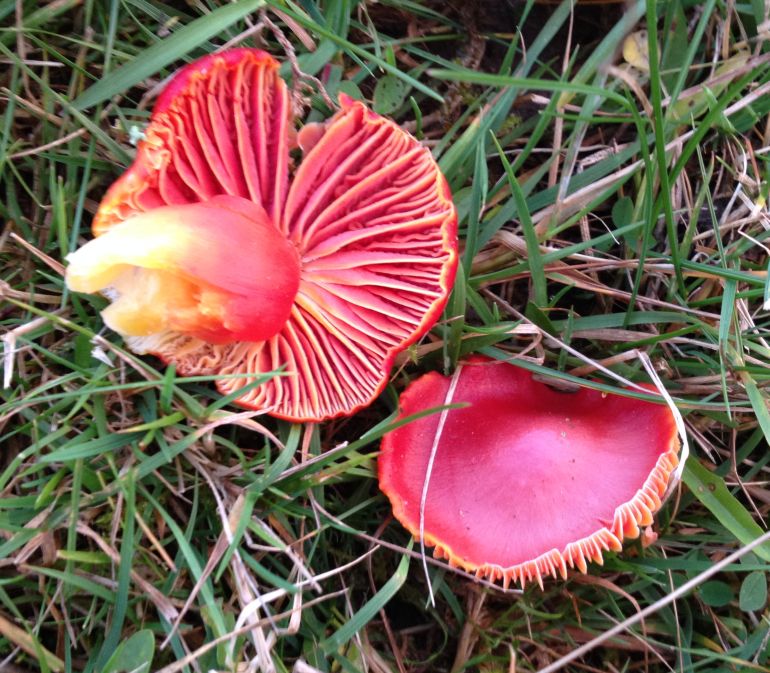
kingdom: Fungi
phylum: Basidiomycota
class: Agaricomycetes
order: Agaricales
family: Hygrophoraceae
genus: Hygrocybe
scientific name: Hygrocybe coccinea
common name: cinnober-vokshat
